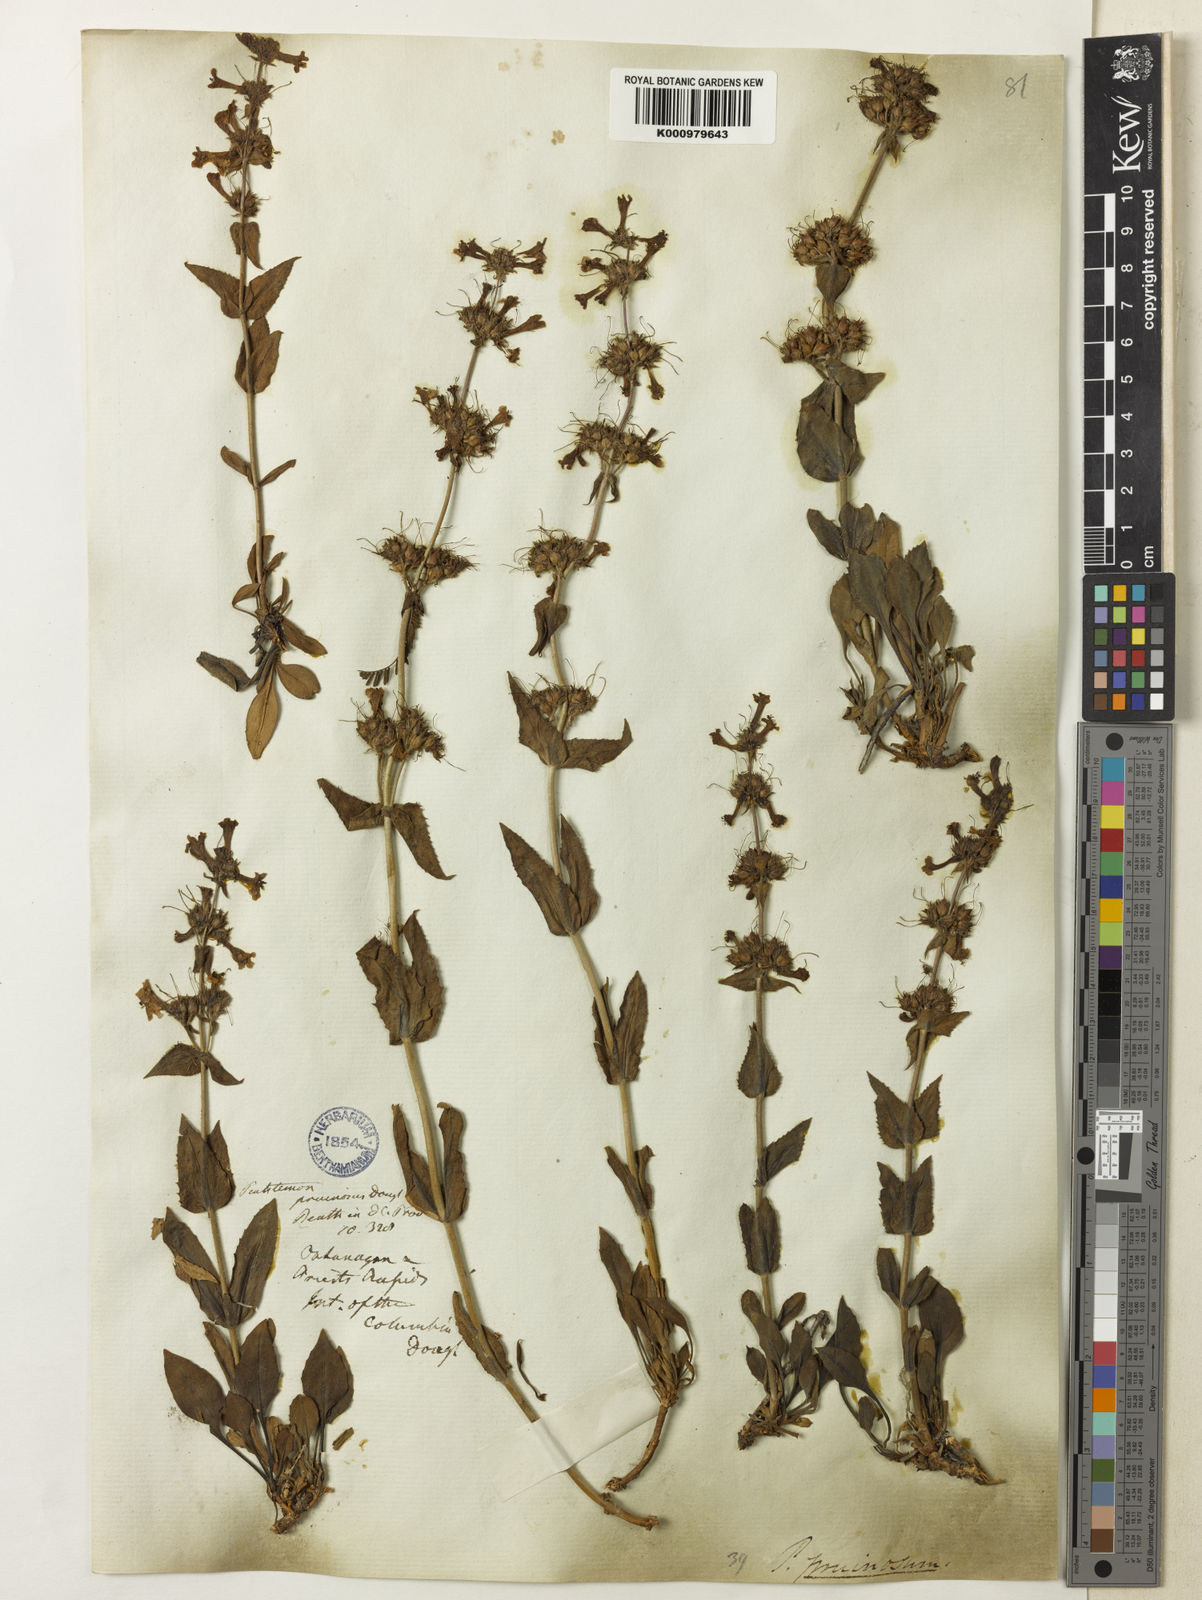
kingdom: Plantae
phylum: Tracheophyta
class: Magnoliopsida
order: Lamiales
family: Plantaginaceae
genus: Penstemon
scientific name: Penstemon
